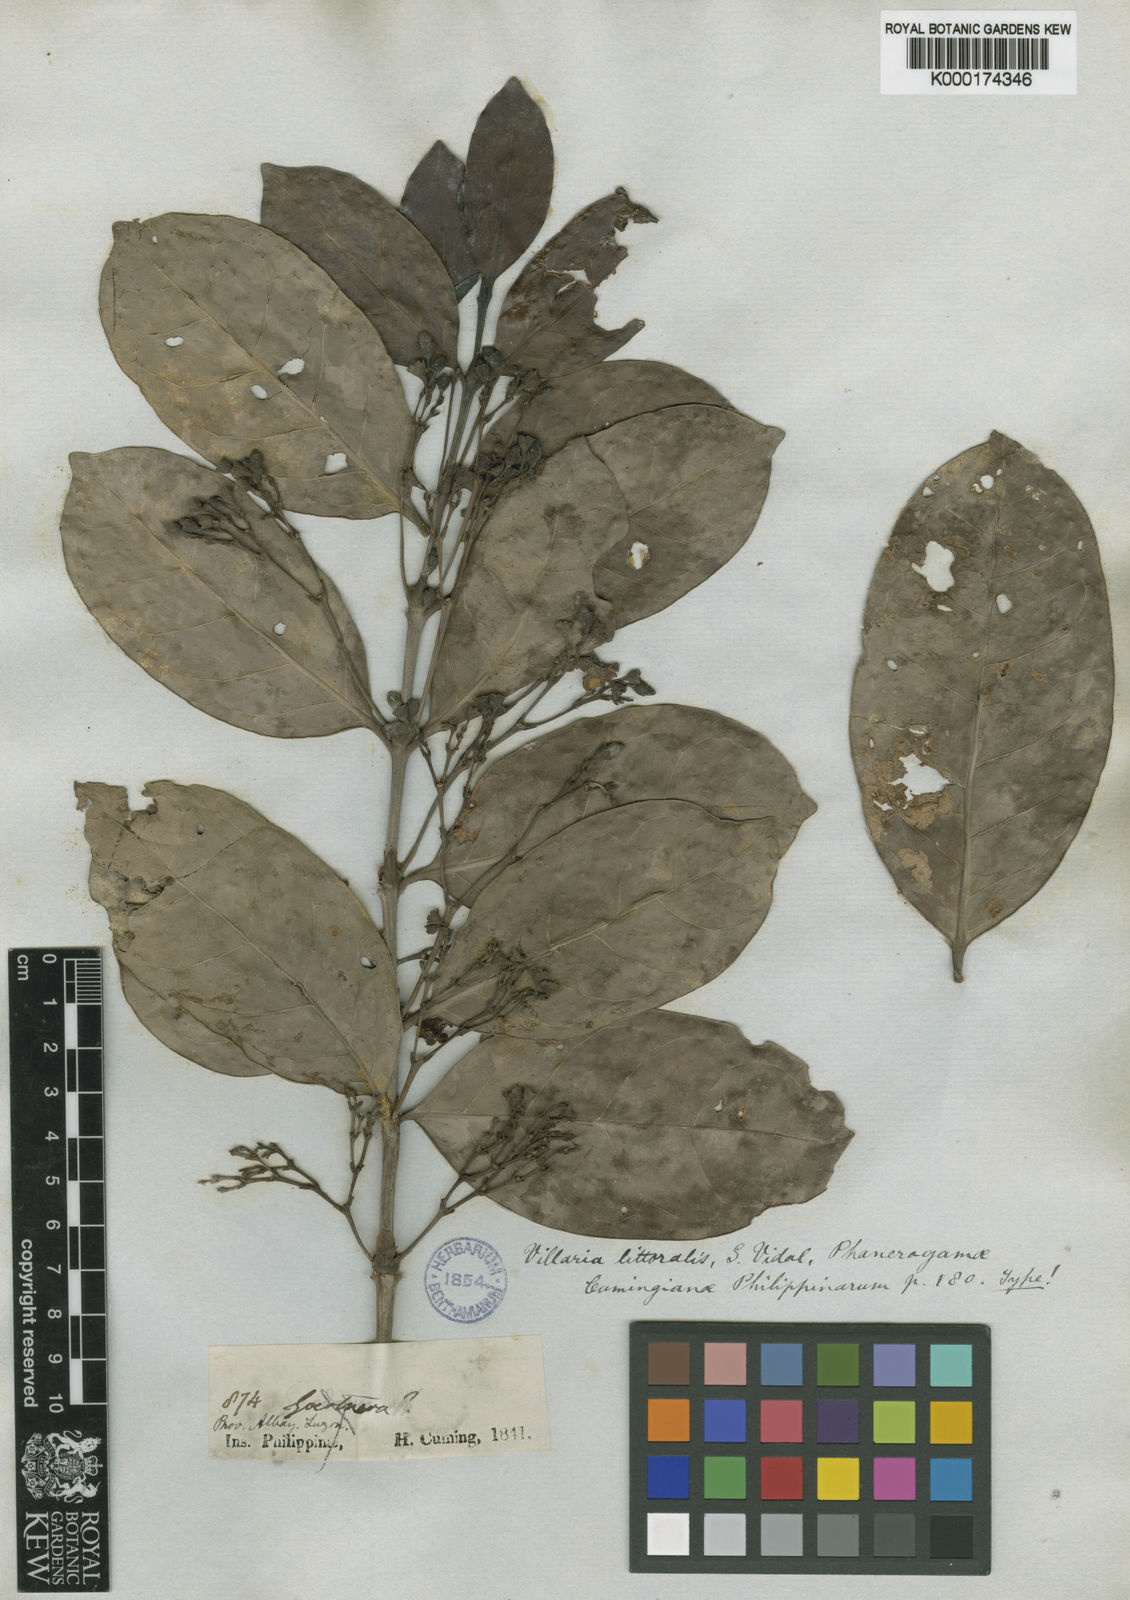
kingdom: Plantae
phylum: Tracheophyta
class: Magnoliopsida
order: Gentianales
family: Rubiaceae
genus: Villaria
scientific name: Villaria odorata
